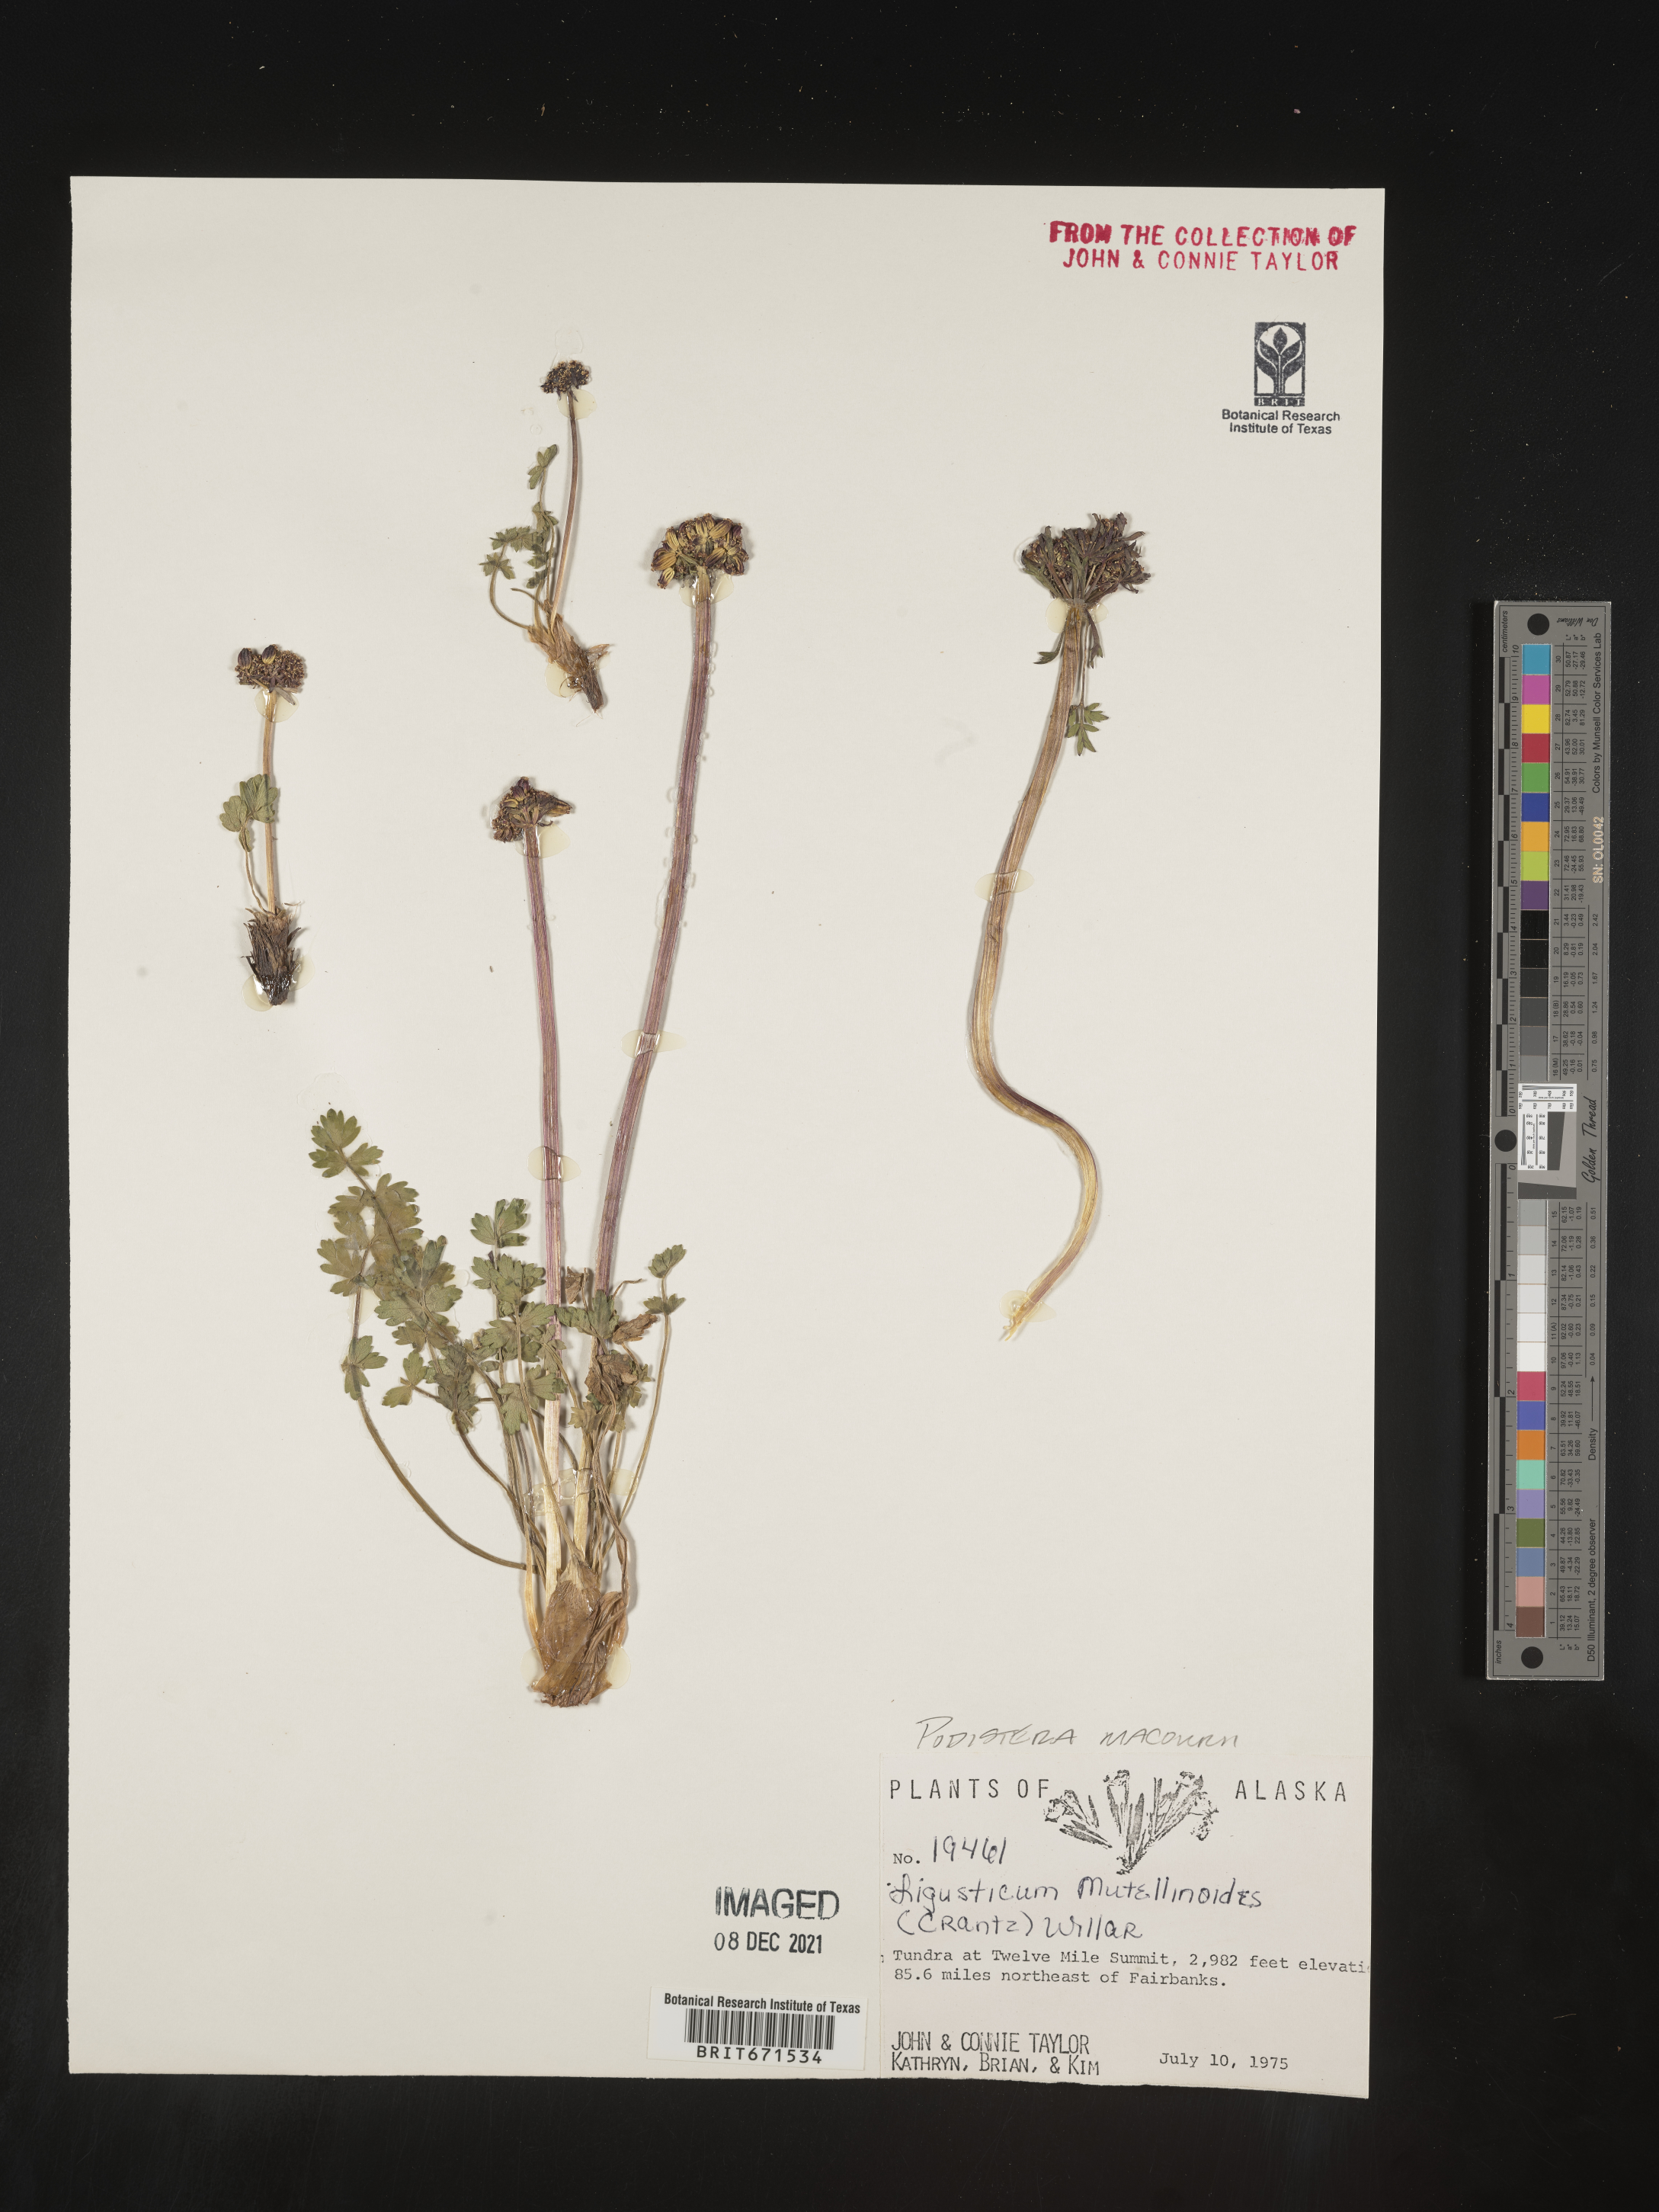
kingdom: Plantae
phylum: Tracheophyta
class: Magnoliopsida
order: Apiales
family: Apiaceae
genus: Podistera
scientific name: Podistera
